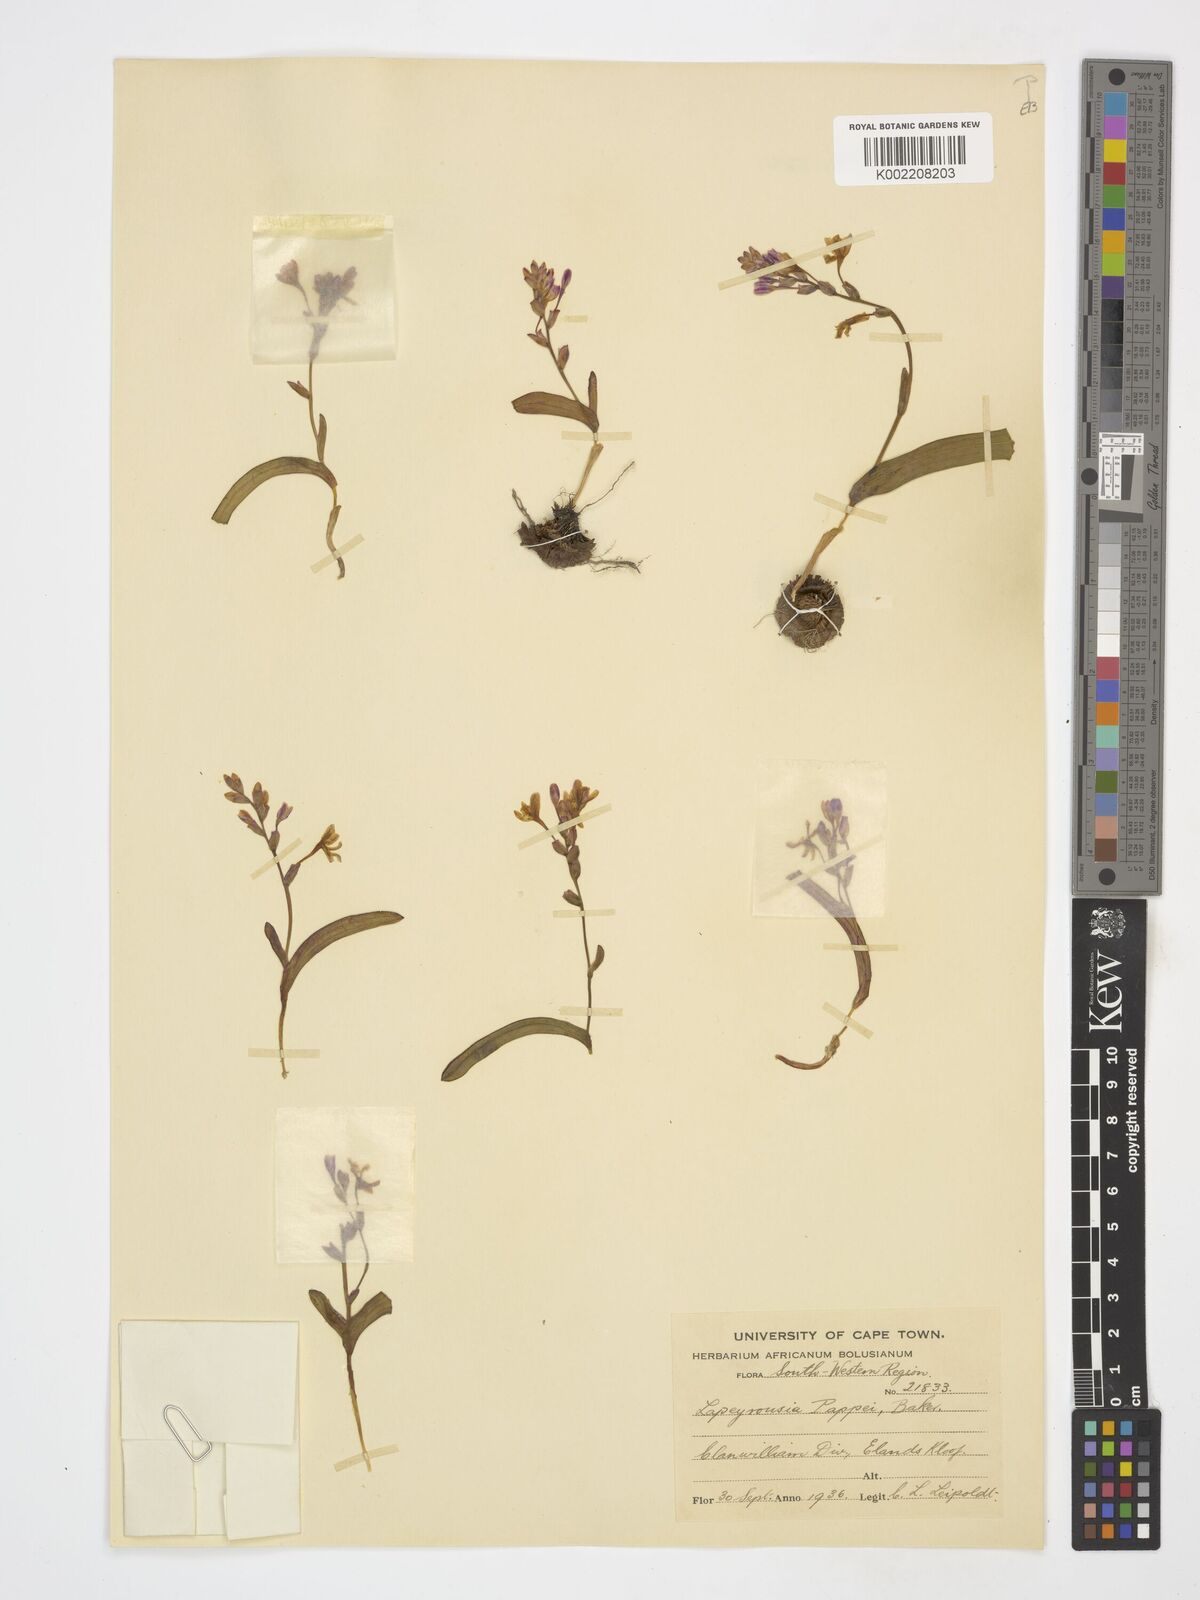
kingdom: Plantae
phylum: Tracheophyta
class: Liliopsida
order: Asparagales
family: Iridaceae
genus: Codonorhiza
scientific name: Codonorhiza falcata
